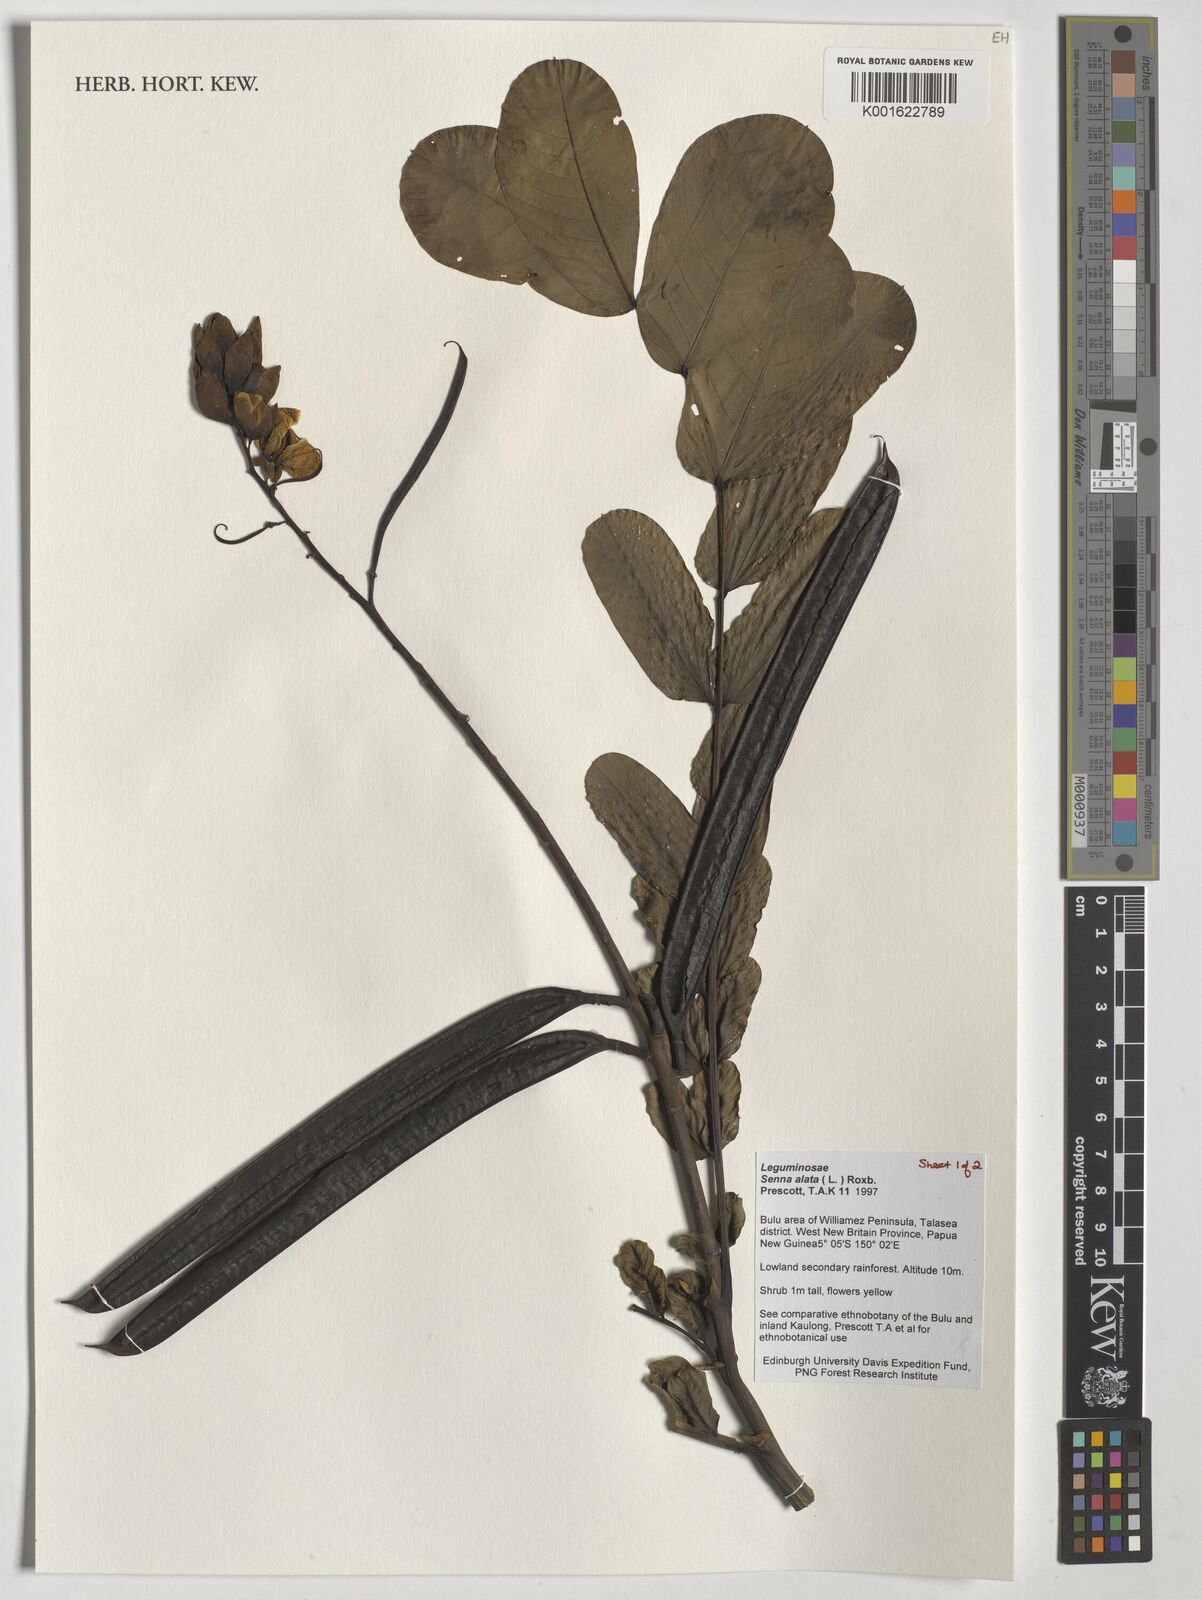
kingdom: Plantae
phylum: Tracheophyta
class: Magnoliopsida
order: Fabales
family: Fabaceae
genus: Senna
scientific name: Senna alata
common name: Emperor's candlesticks
